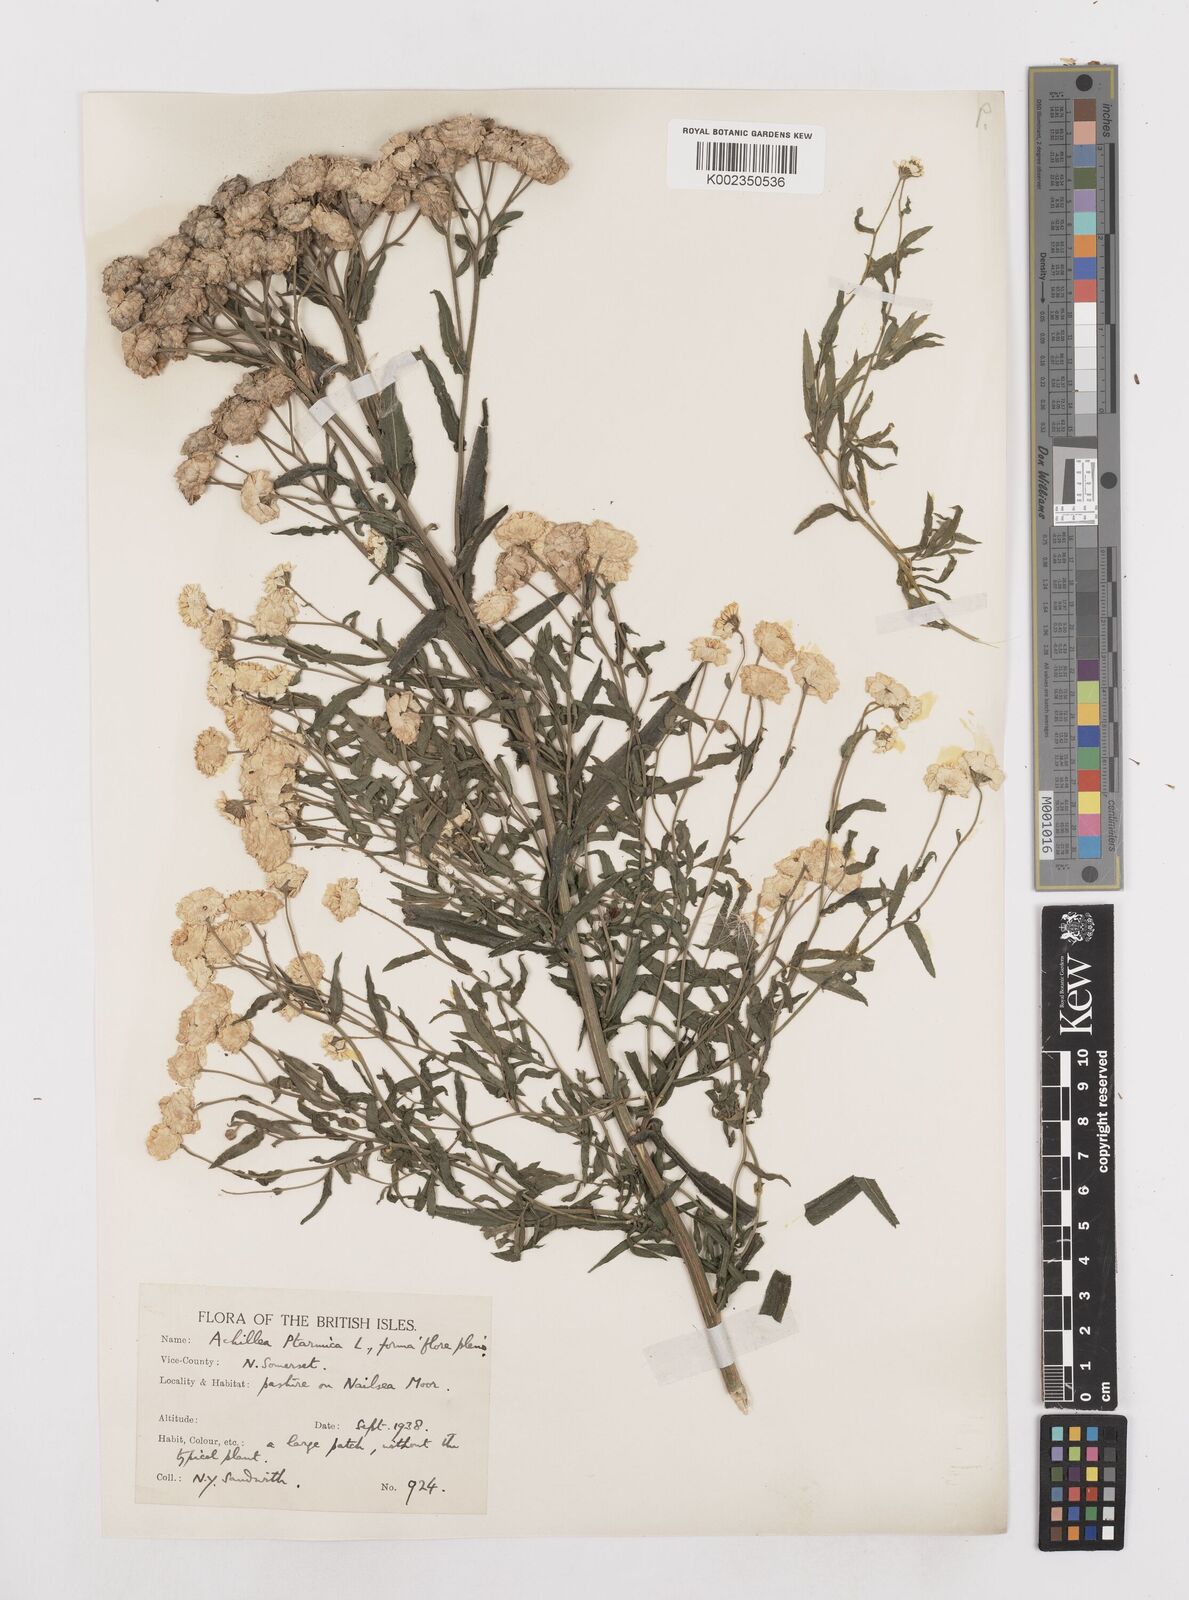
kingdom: Plantae
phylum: Tracheophyta
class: Magnoliopsida
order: Asterales
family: Asteraceae
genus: Achillea
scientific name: Achillea ptarmica
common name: Sneezeweed
